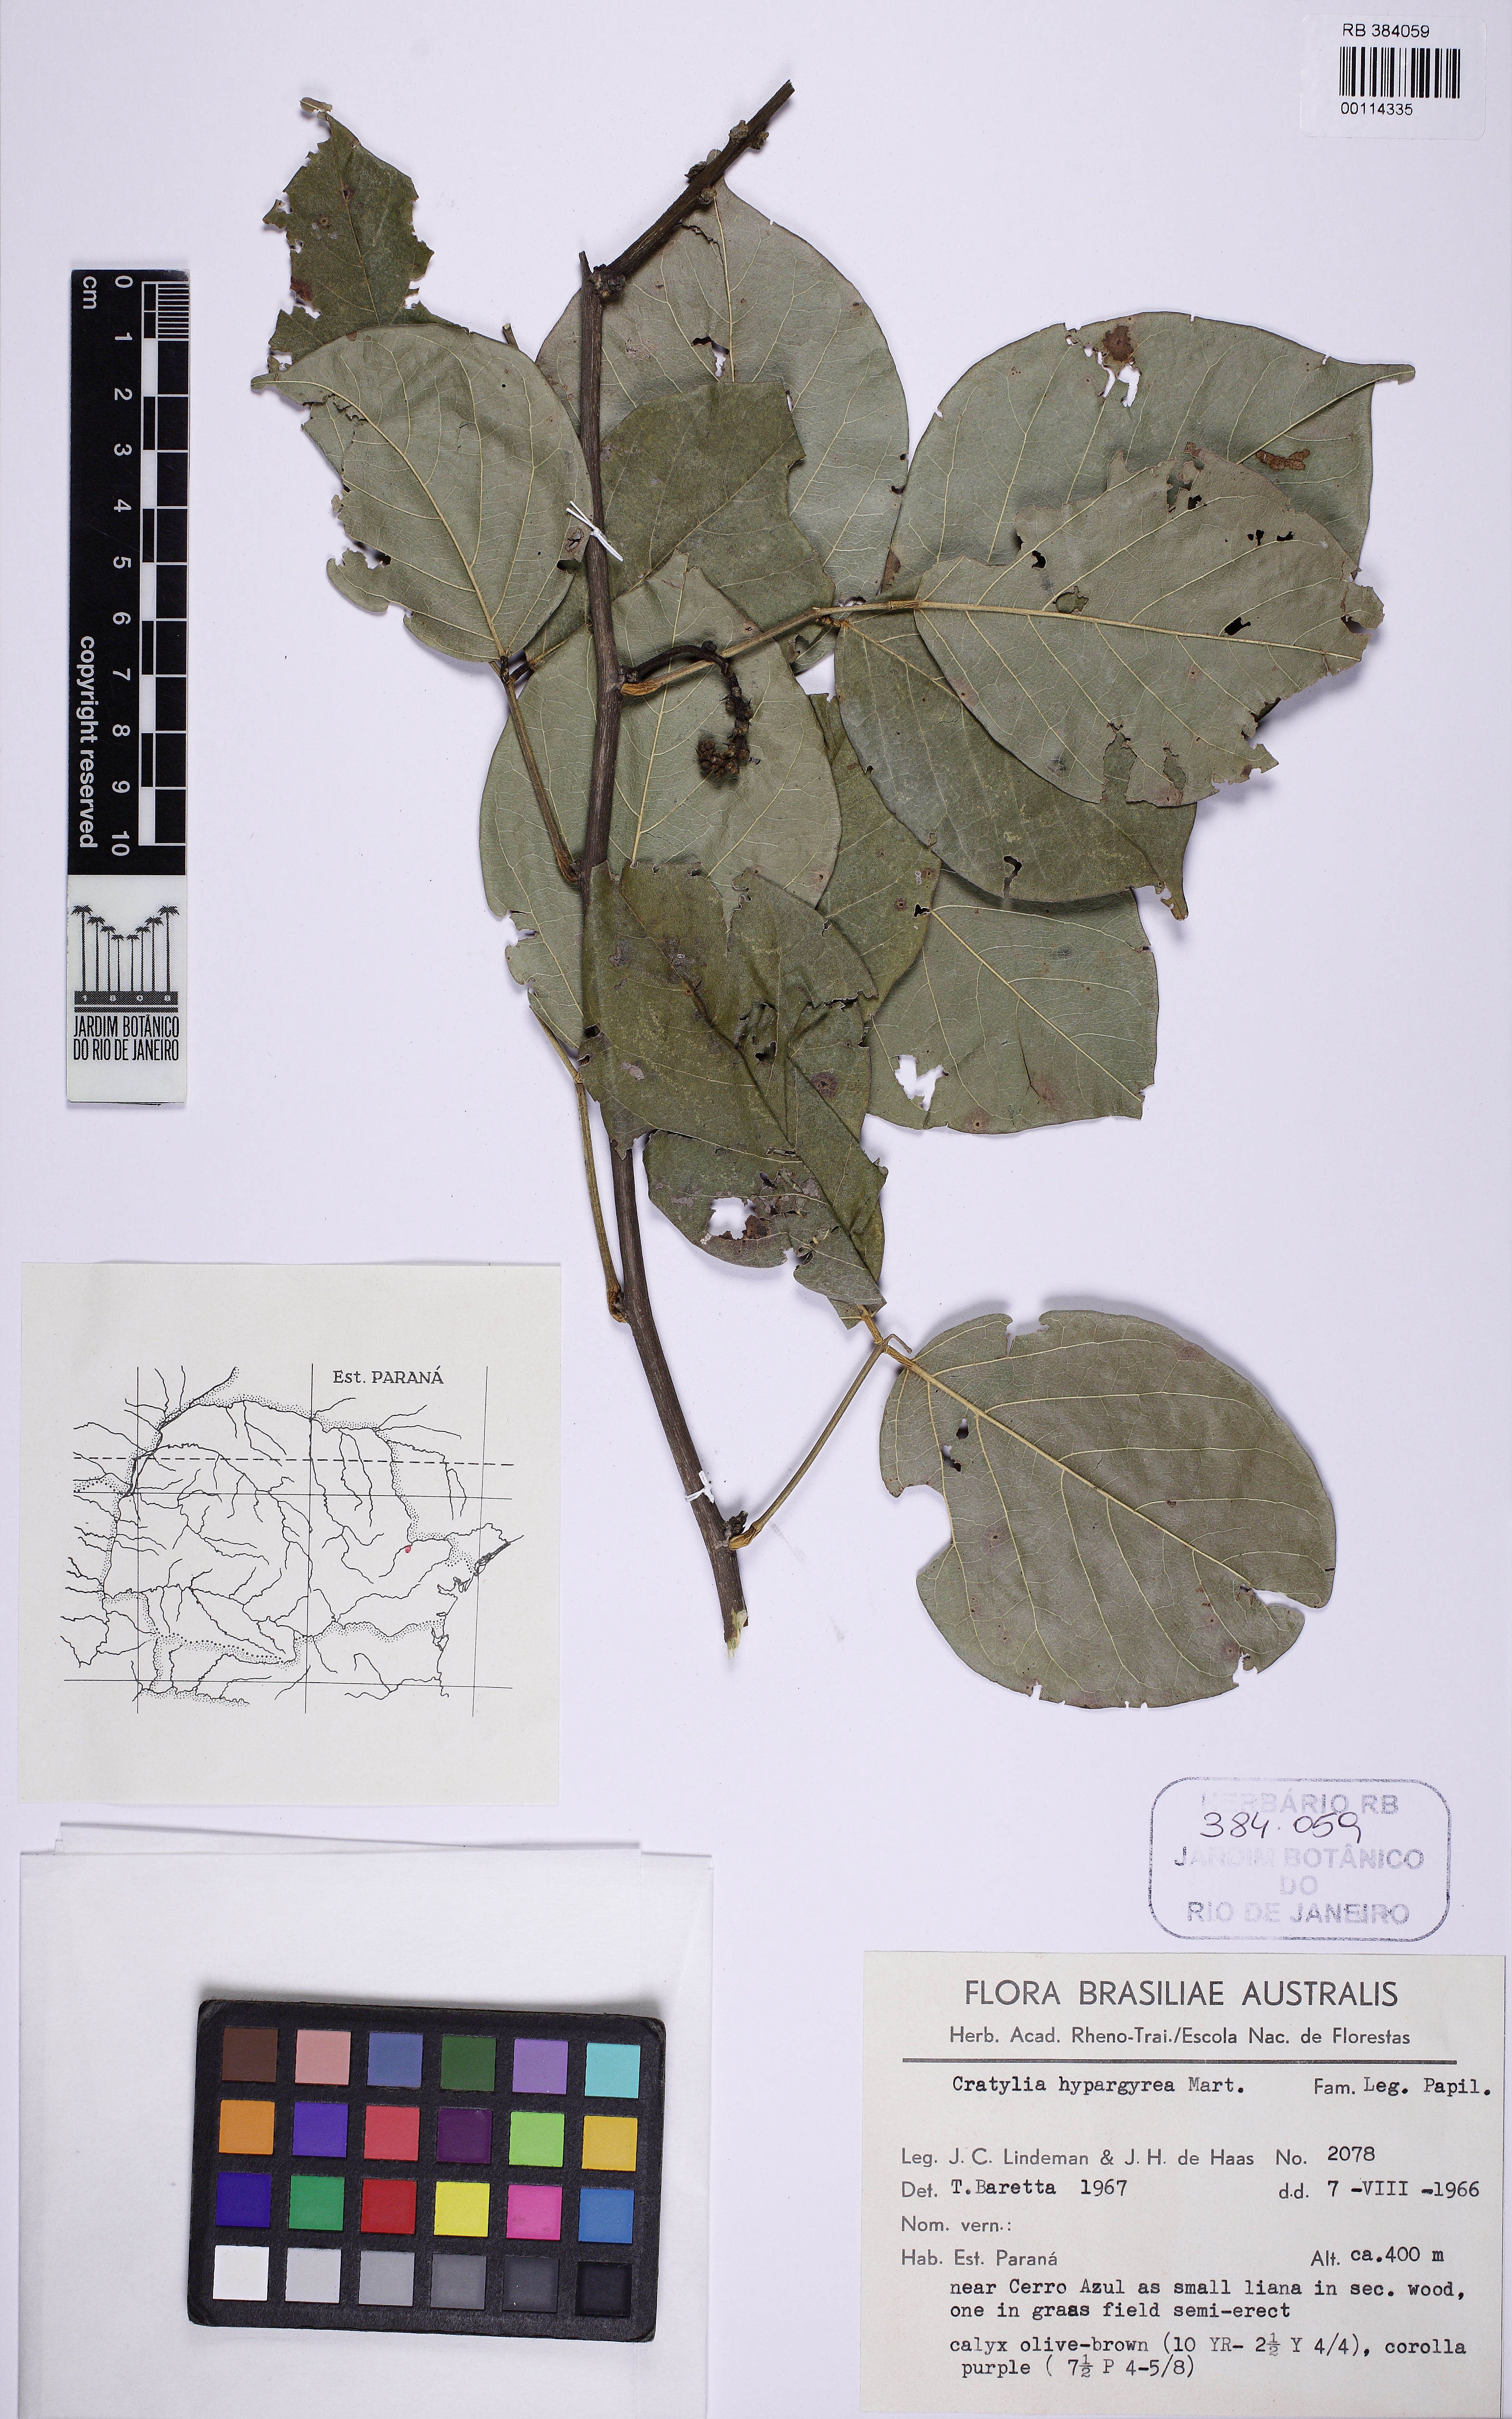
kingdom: Plantae
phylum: Tracheophyta
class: Magnoliopsida
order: Fabales
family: Fabaceae
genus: Cratylia
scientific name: Cratylia hypargyrea
